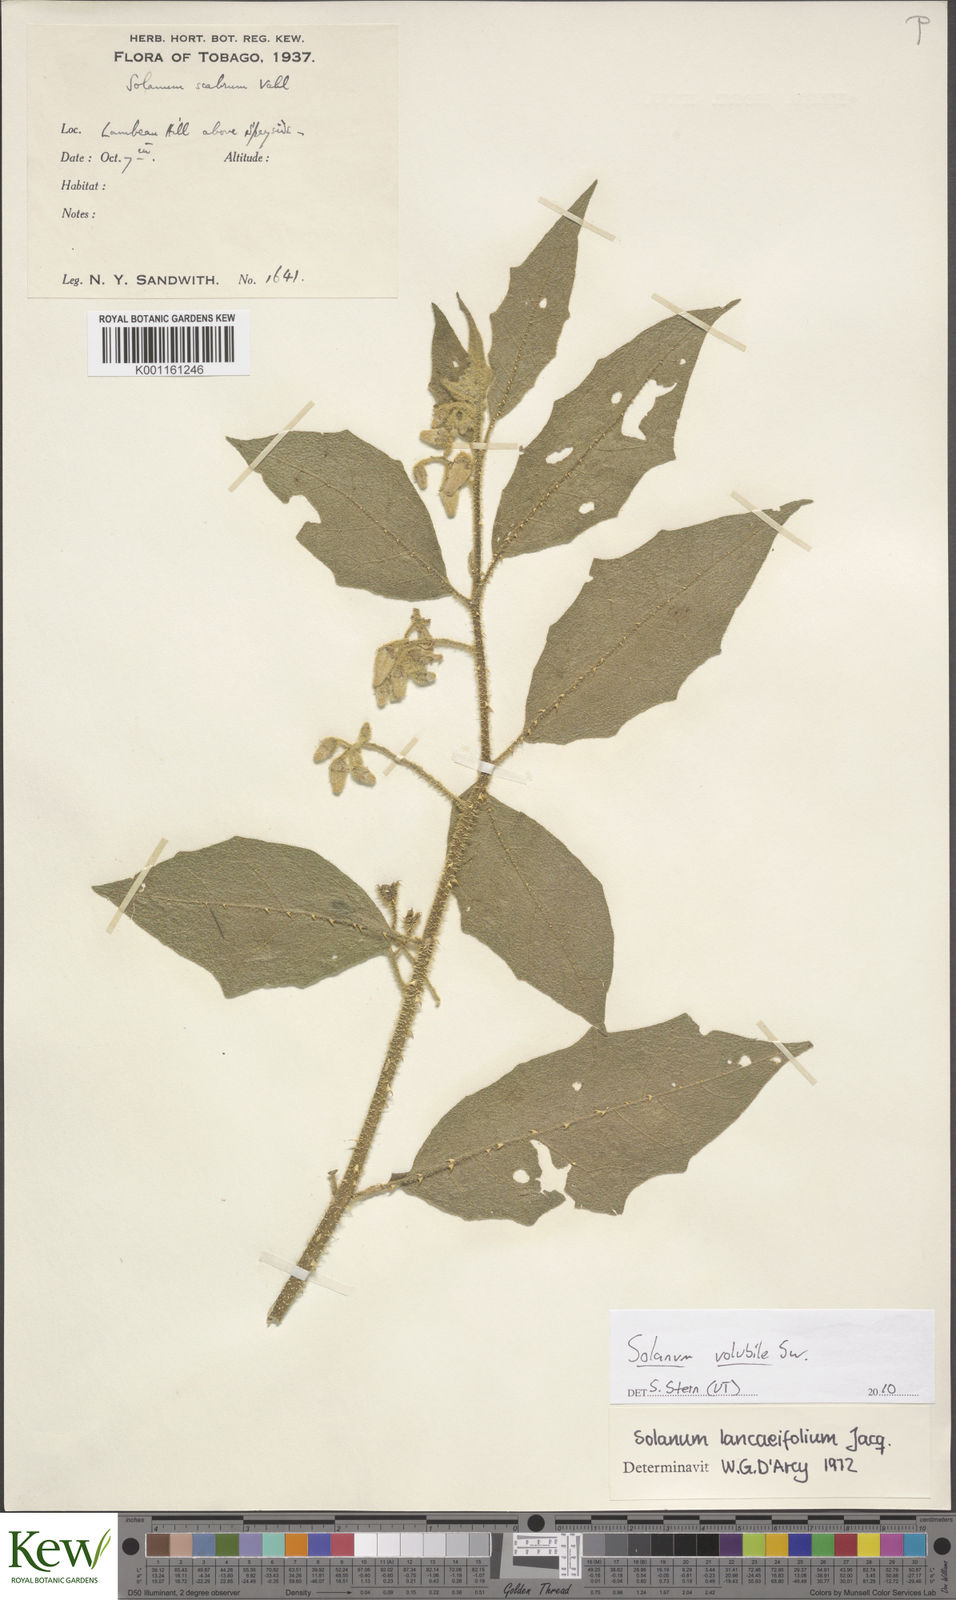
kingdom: Plantae
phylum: Tracheophyta
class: Magnoliopsida
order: Solanales
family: Solanaceae
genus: Solanum
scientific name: Solanum volubile
